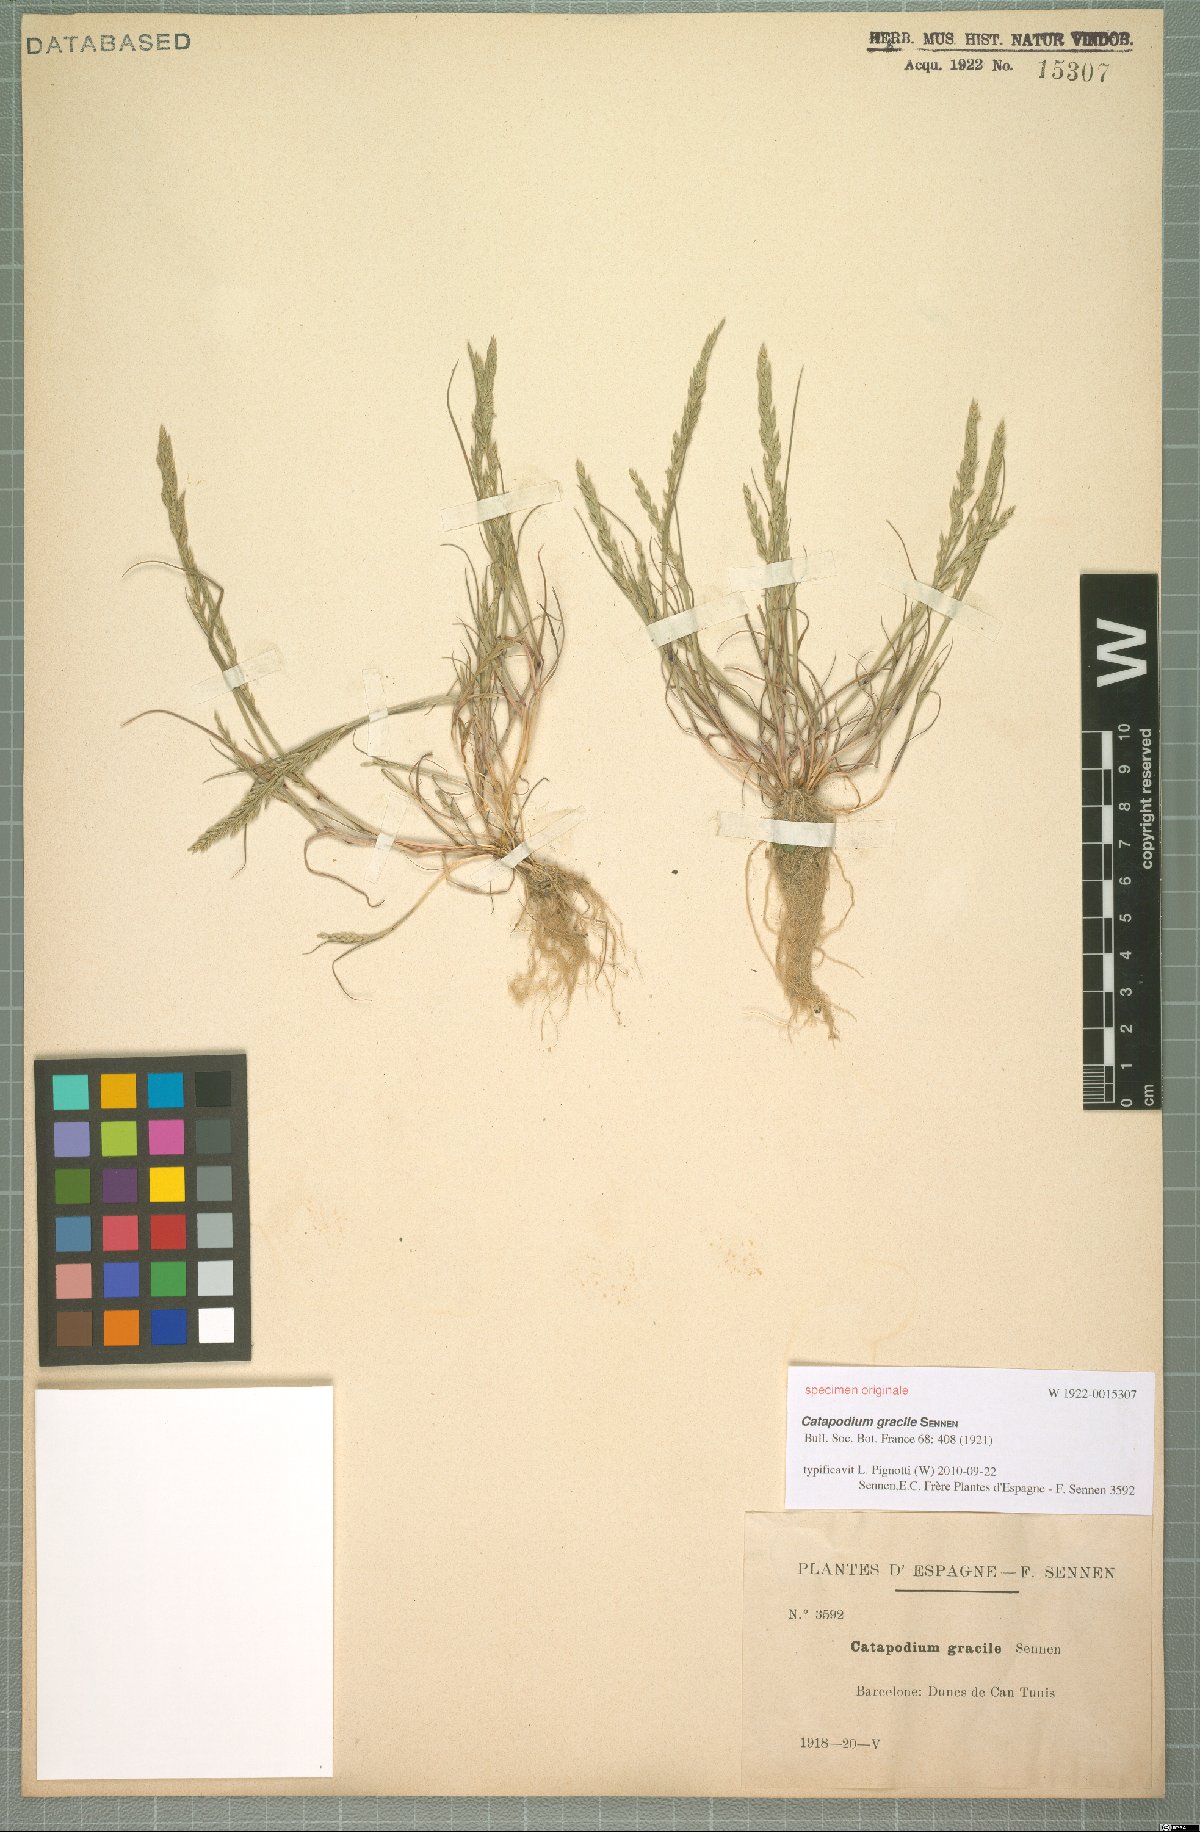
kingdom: Plantae
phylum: Tracheophyta
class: Liliopsida
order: Poales
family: Poaceae
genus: Catapodium
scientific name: Catapodium gracile
